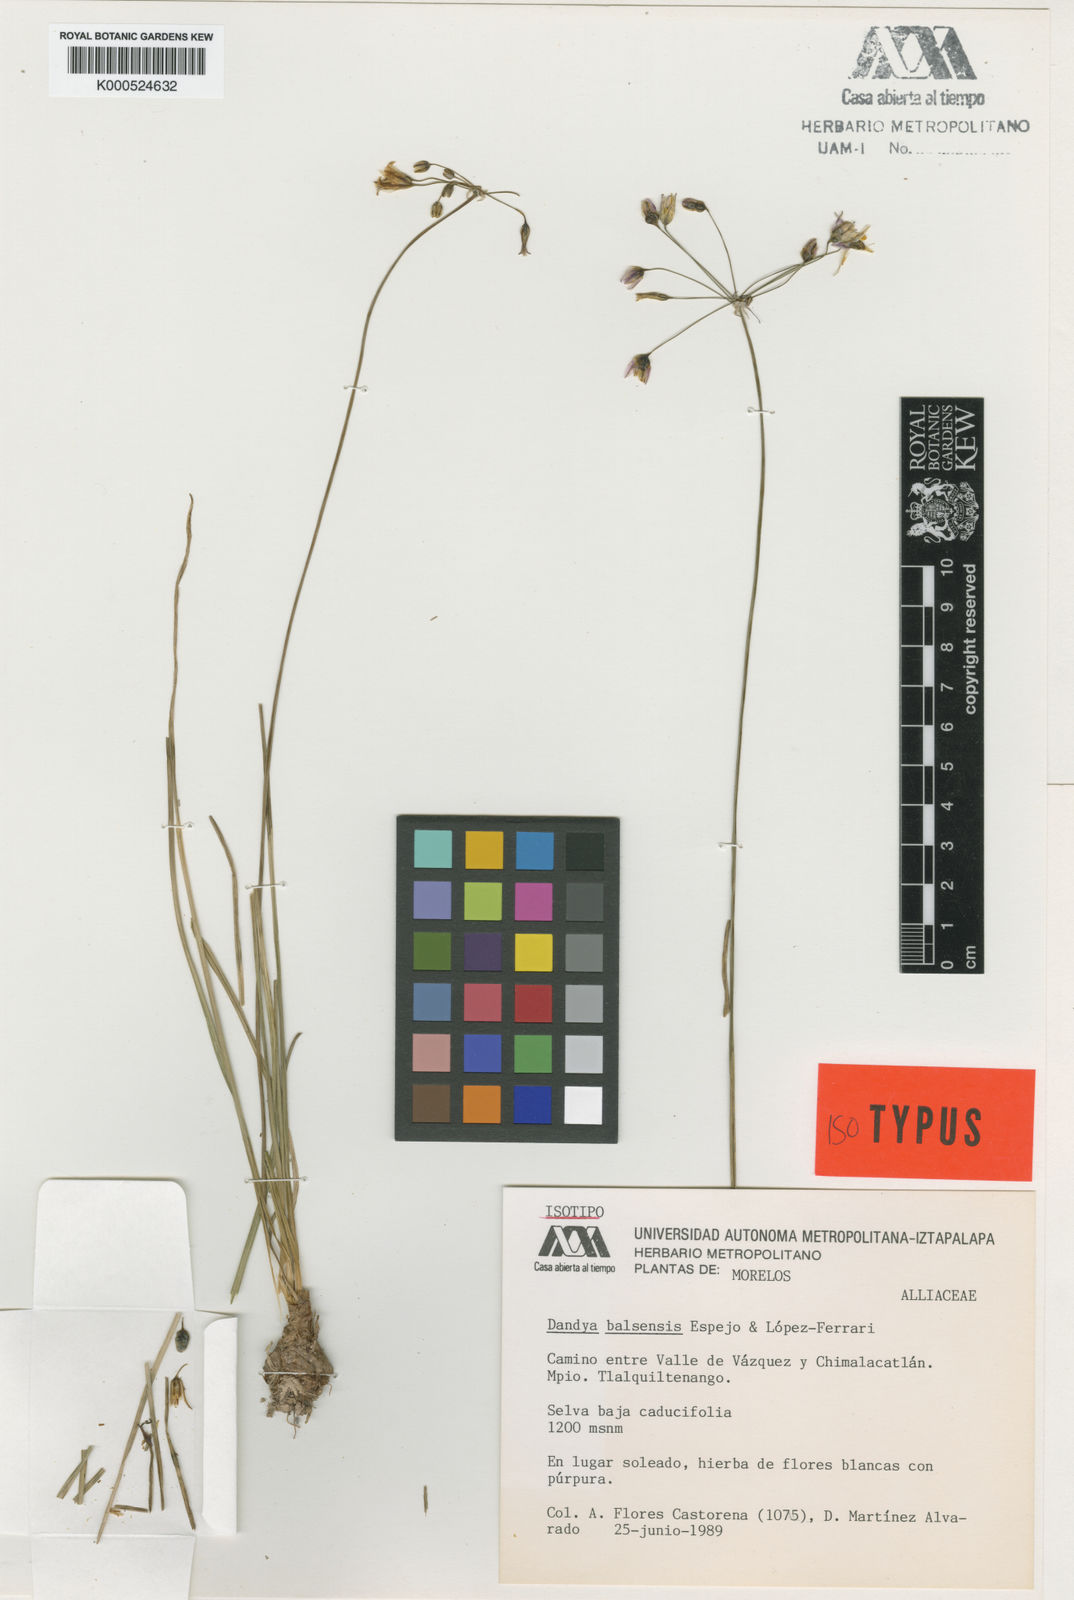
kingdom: Plantae
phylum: Tracheophyta
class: Liliopsida
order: Asparagales
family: Asparagaceae
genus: Dandya
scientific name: Dandya
